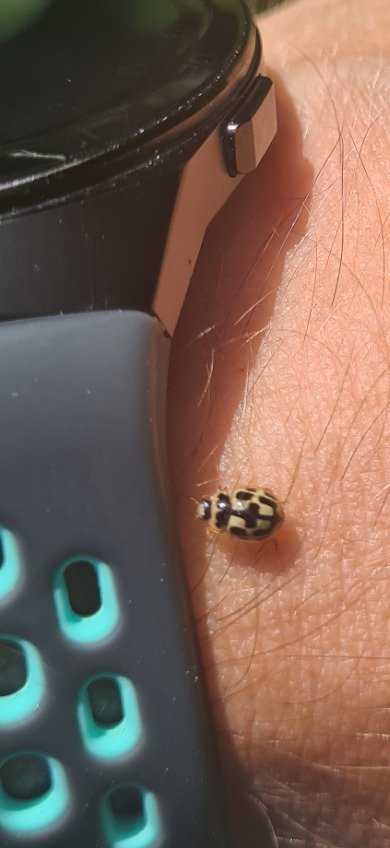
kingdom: Animalia
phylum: Arthropoda
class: Insecta
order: Coleoptera
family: Coccinellidae
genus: Propylaea
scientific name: Propylaea quatuordecimpunctata
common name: Skakbræt
